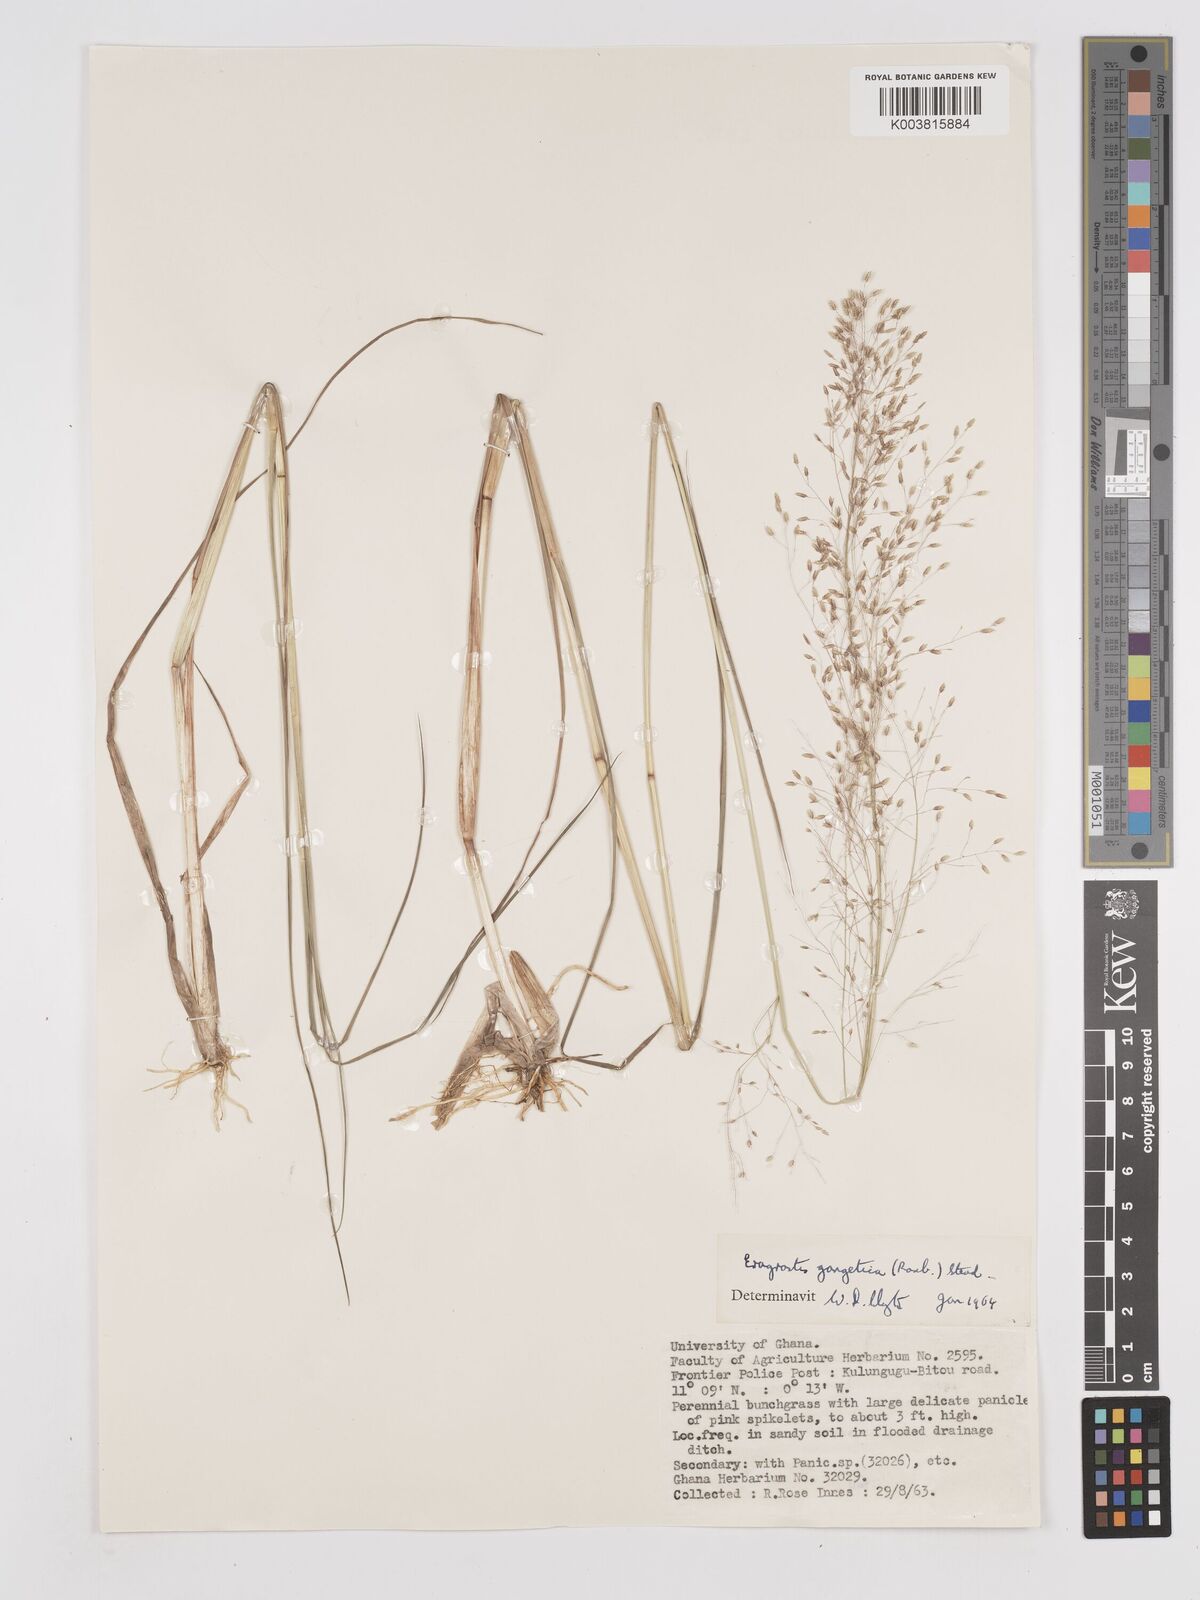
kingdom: Plantae
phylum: Tracheophyta
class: Liliopsida
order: Poales
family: Poaceae
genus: Eragrostis
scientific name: Eragrostis gangetica
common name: Slimflower lovegrass
